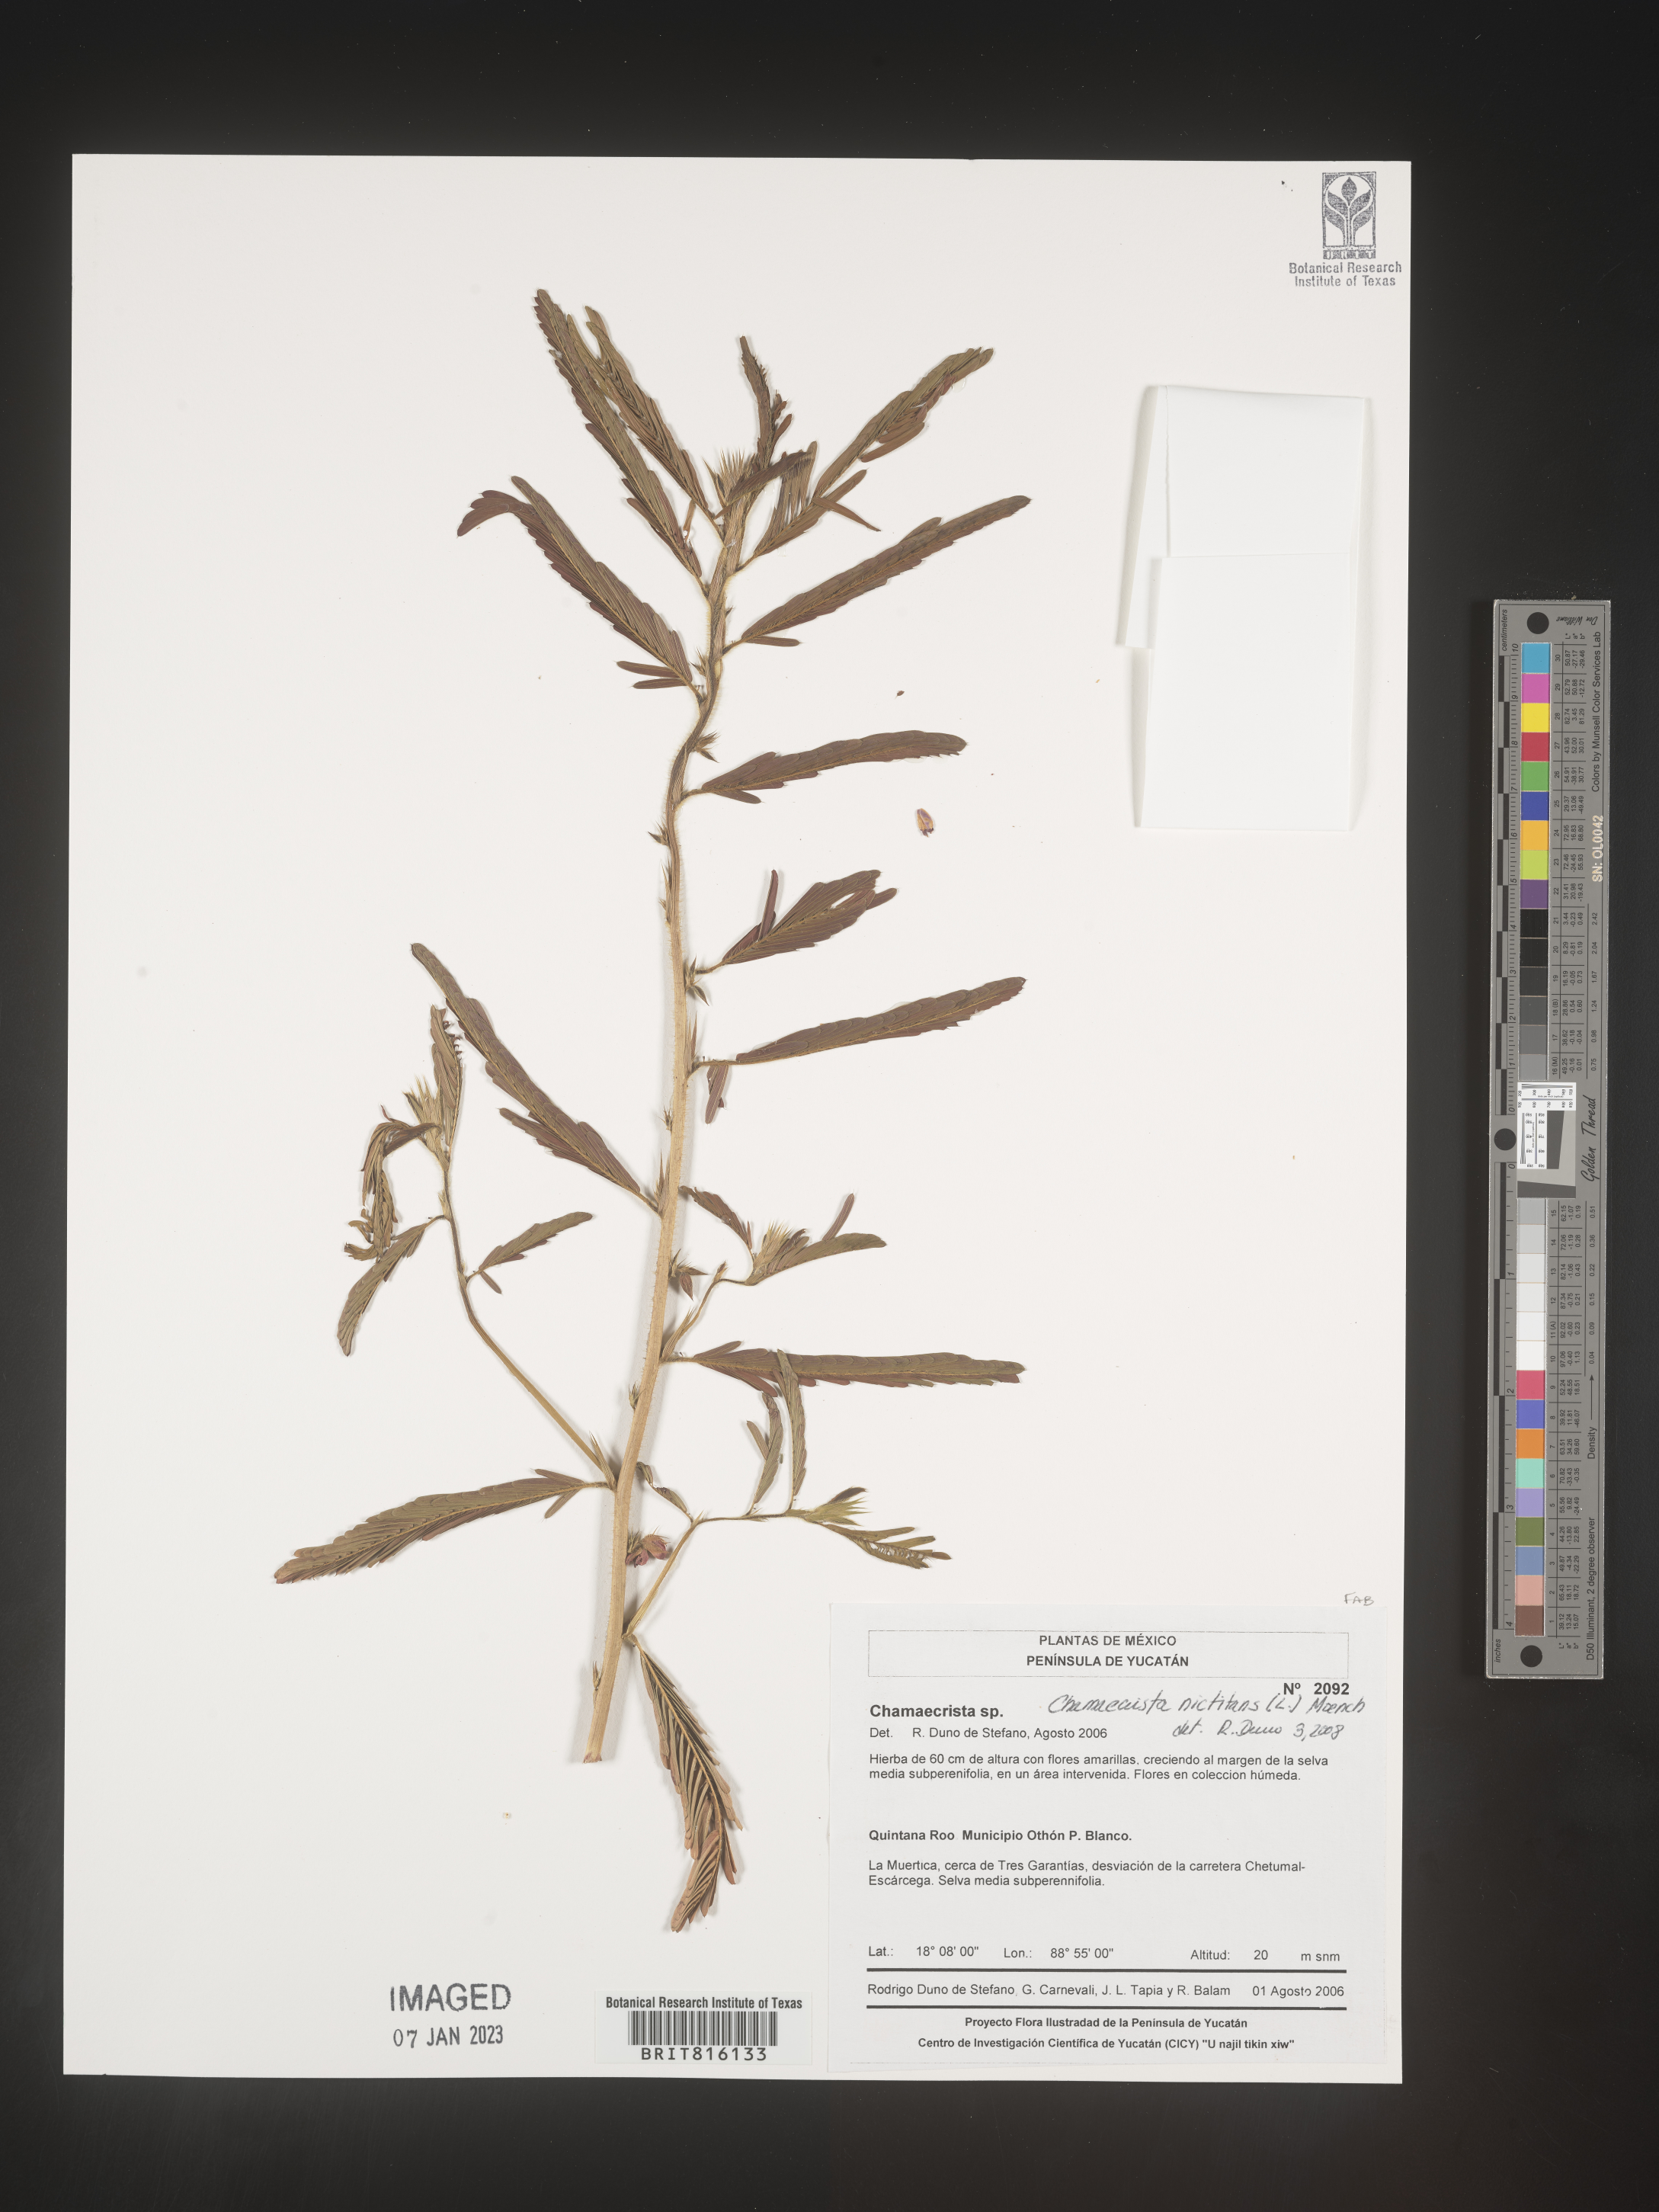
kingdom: Plantae
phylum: Tracheophyta
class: Magnoliopsida
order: Fabales
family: Fabaceae
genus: Chamaecrista
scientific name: Chamaecrista
